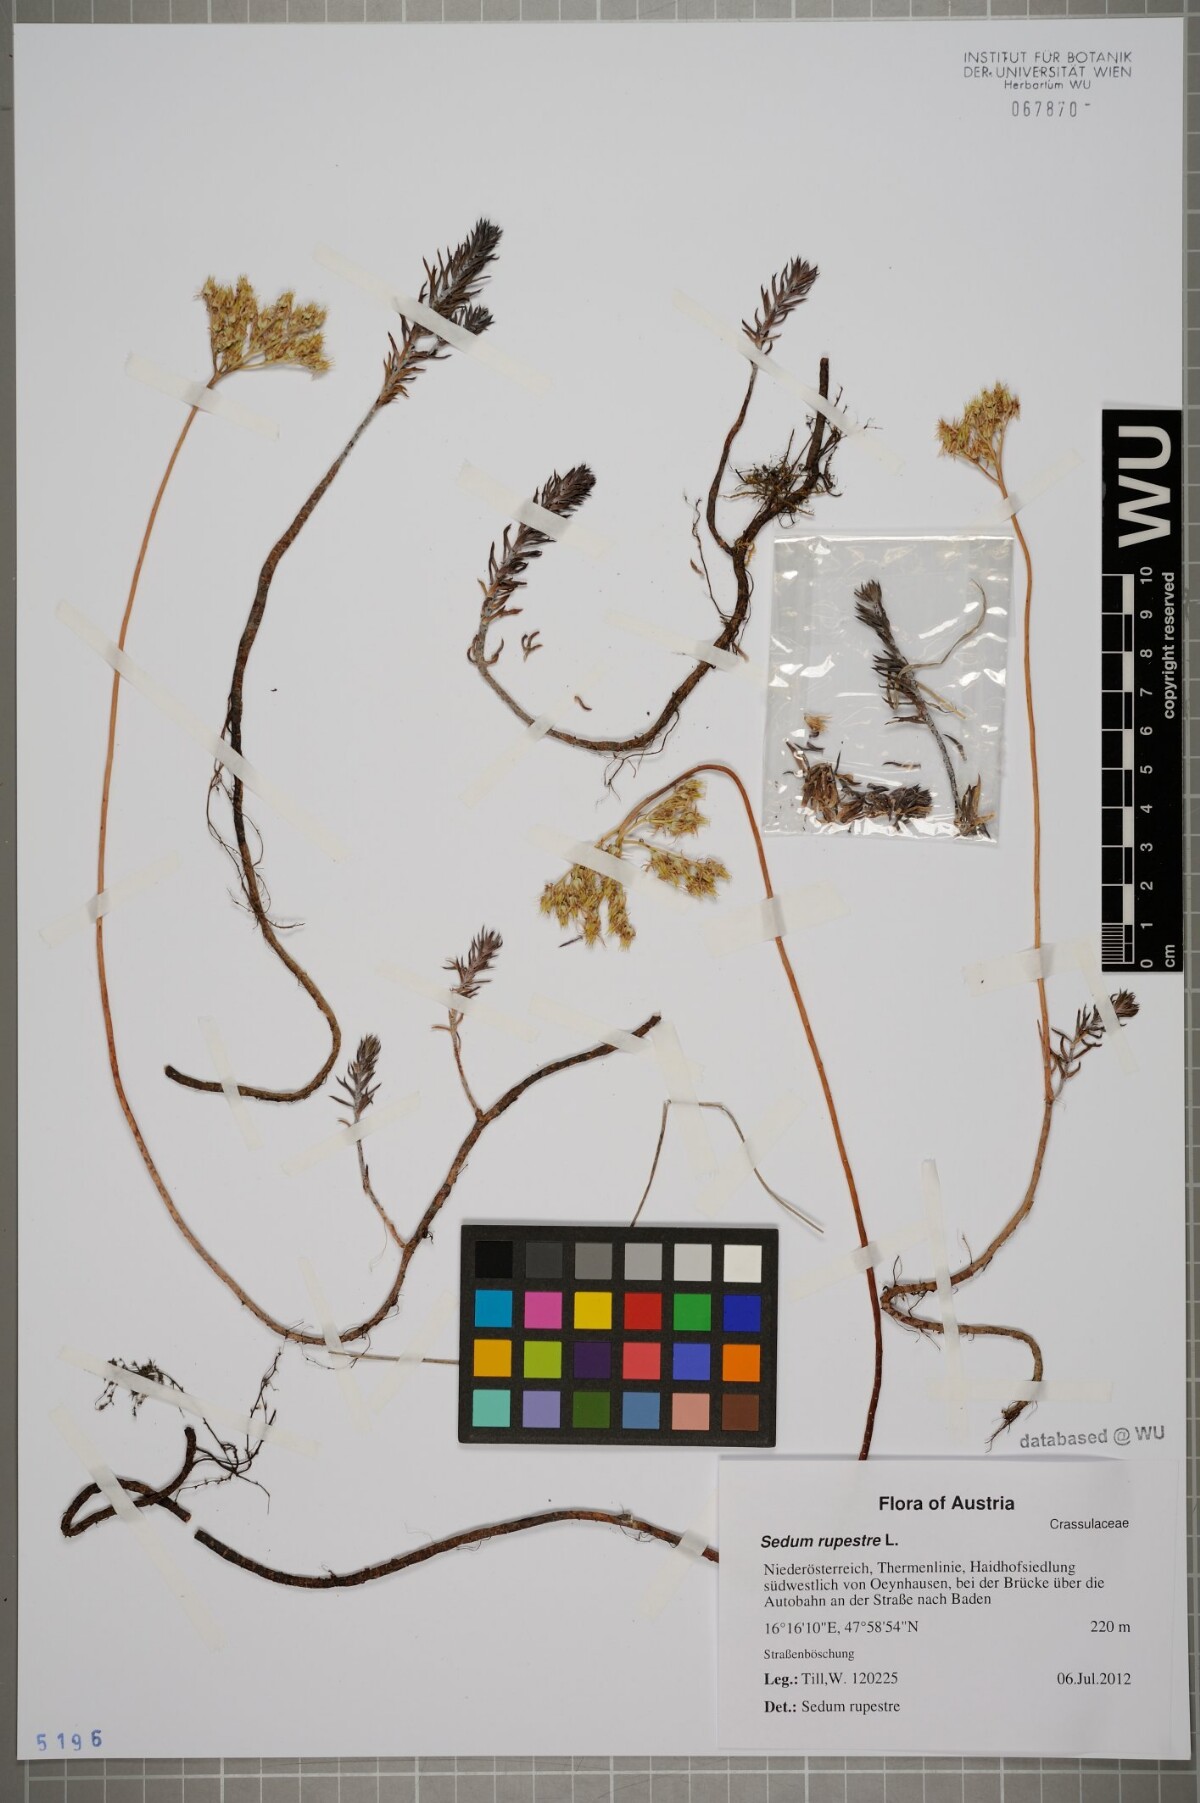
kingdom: Plantae
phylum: Tracheophyta
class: Magnoliopsida
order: Saxifragales
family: Crassulaceae
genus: Petrosedum
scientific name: Petrosedum rupestre
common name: Jenny's stonecrop
